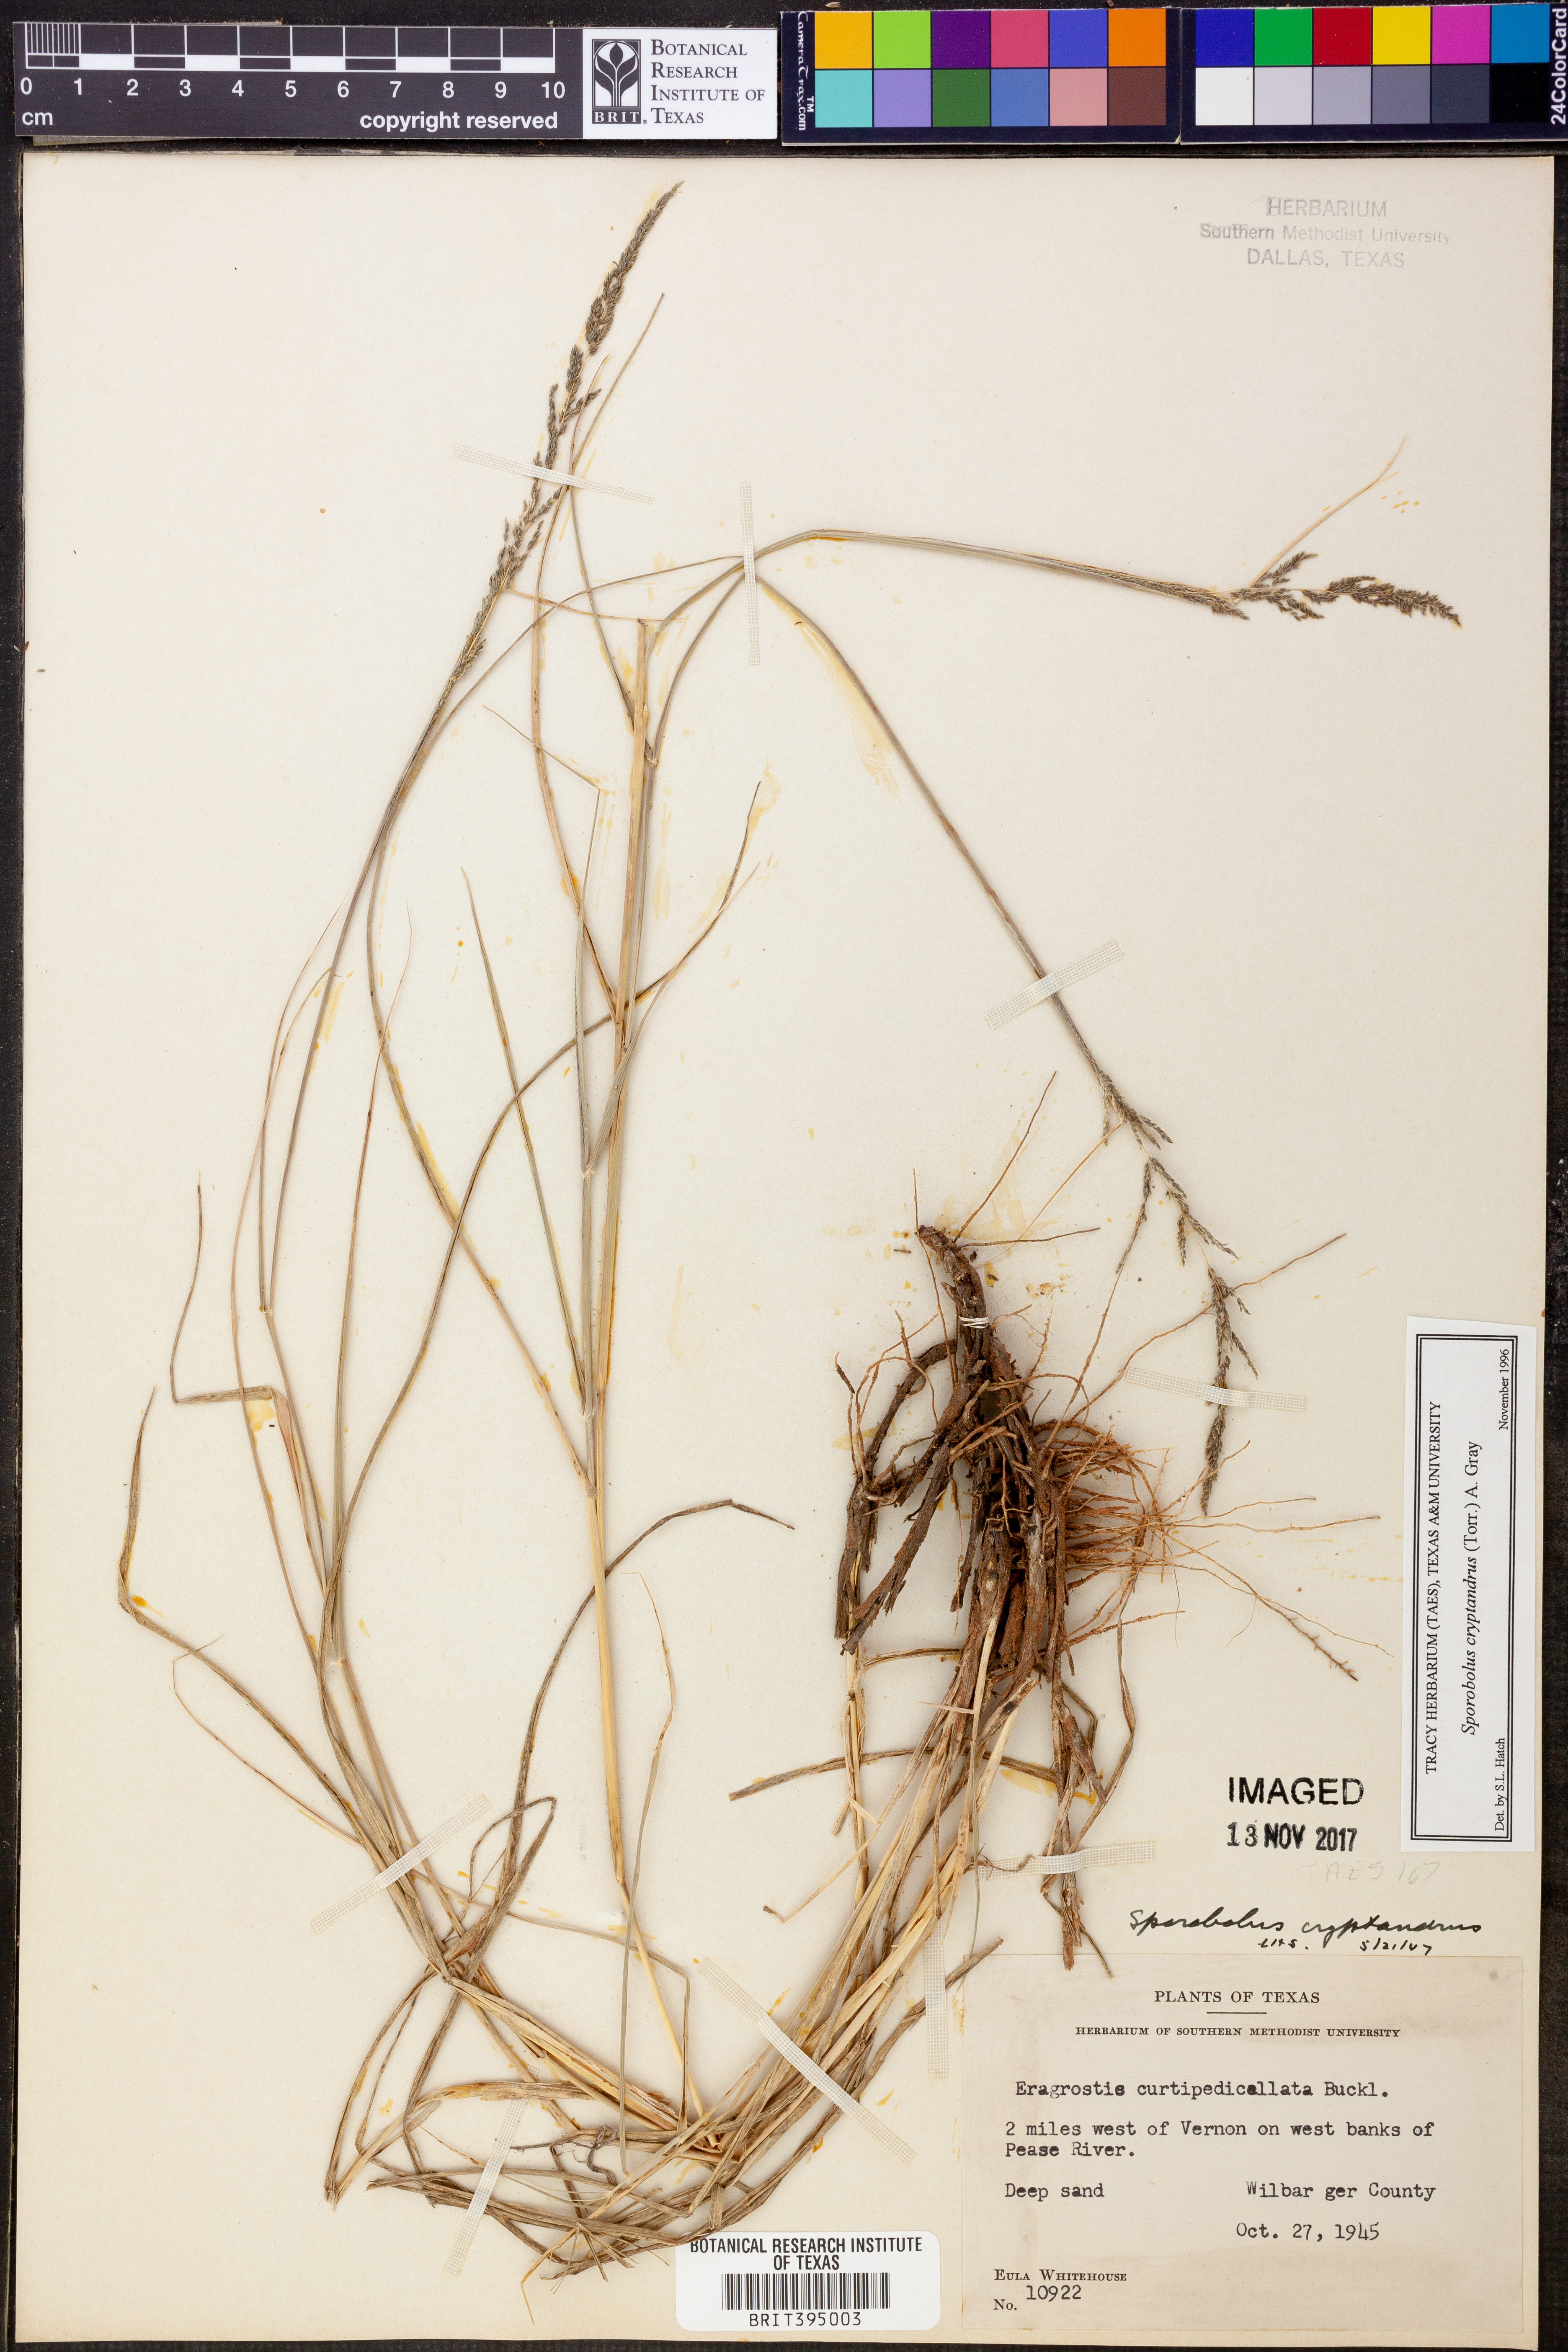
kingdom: Plantae
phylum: Tracheophyta
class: Liliopsida
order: Poales
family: Poaceae
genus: Sporobolus
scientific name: Sporobolus cryptandrus
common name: Sand dropseed
